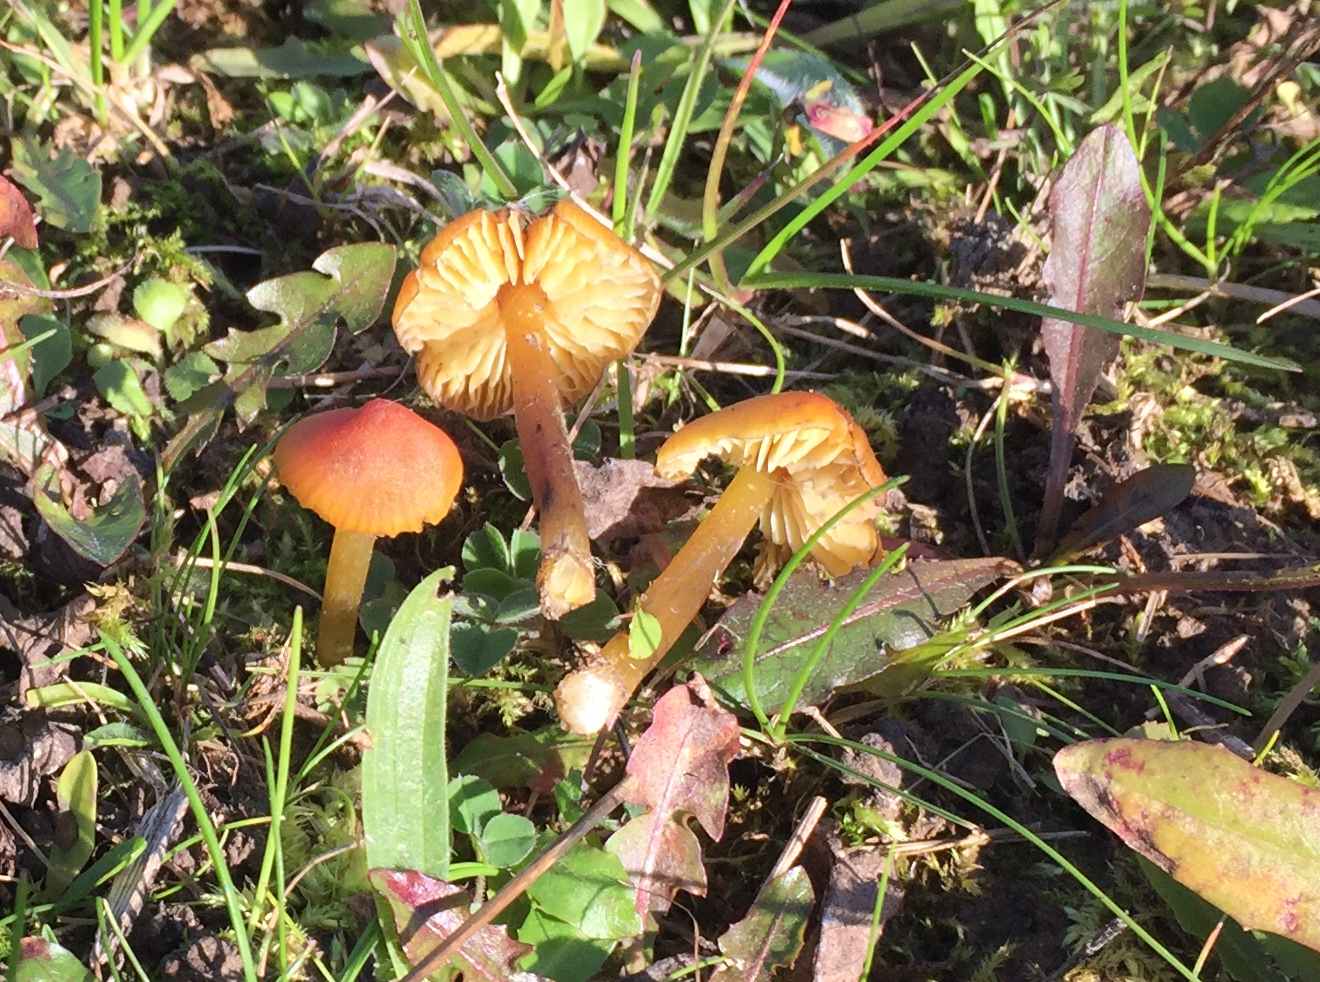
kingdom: Fungi
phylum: Basidiomycota
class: Agaricomycetes
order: Agaricales
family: Hygrophoraceae
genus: Hygrocybe
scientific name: Hygrocybe conica
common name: kegle-vokshat
